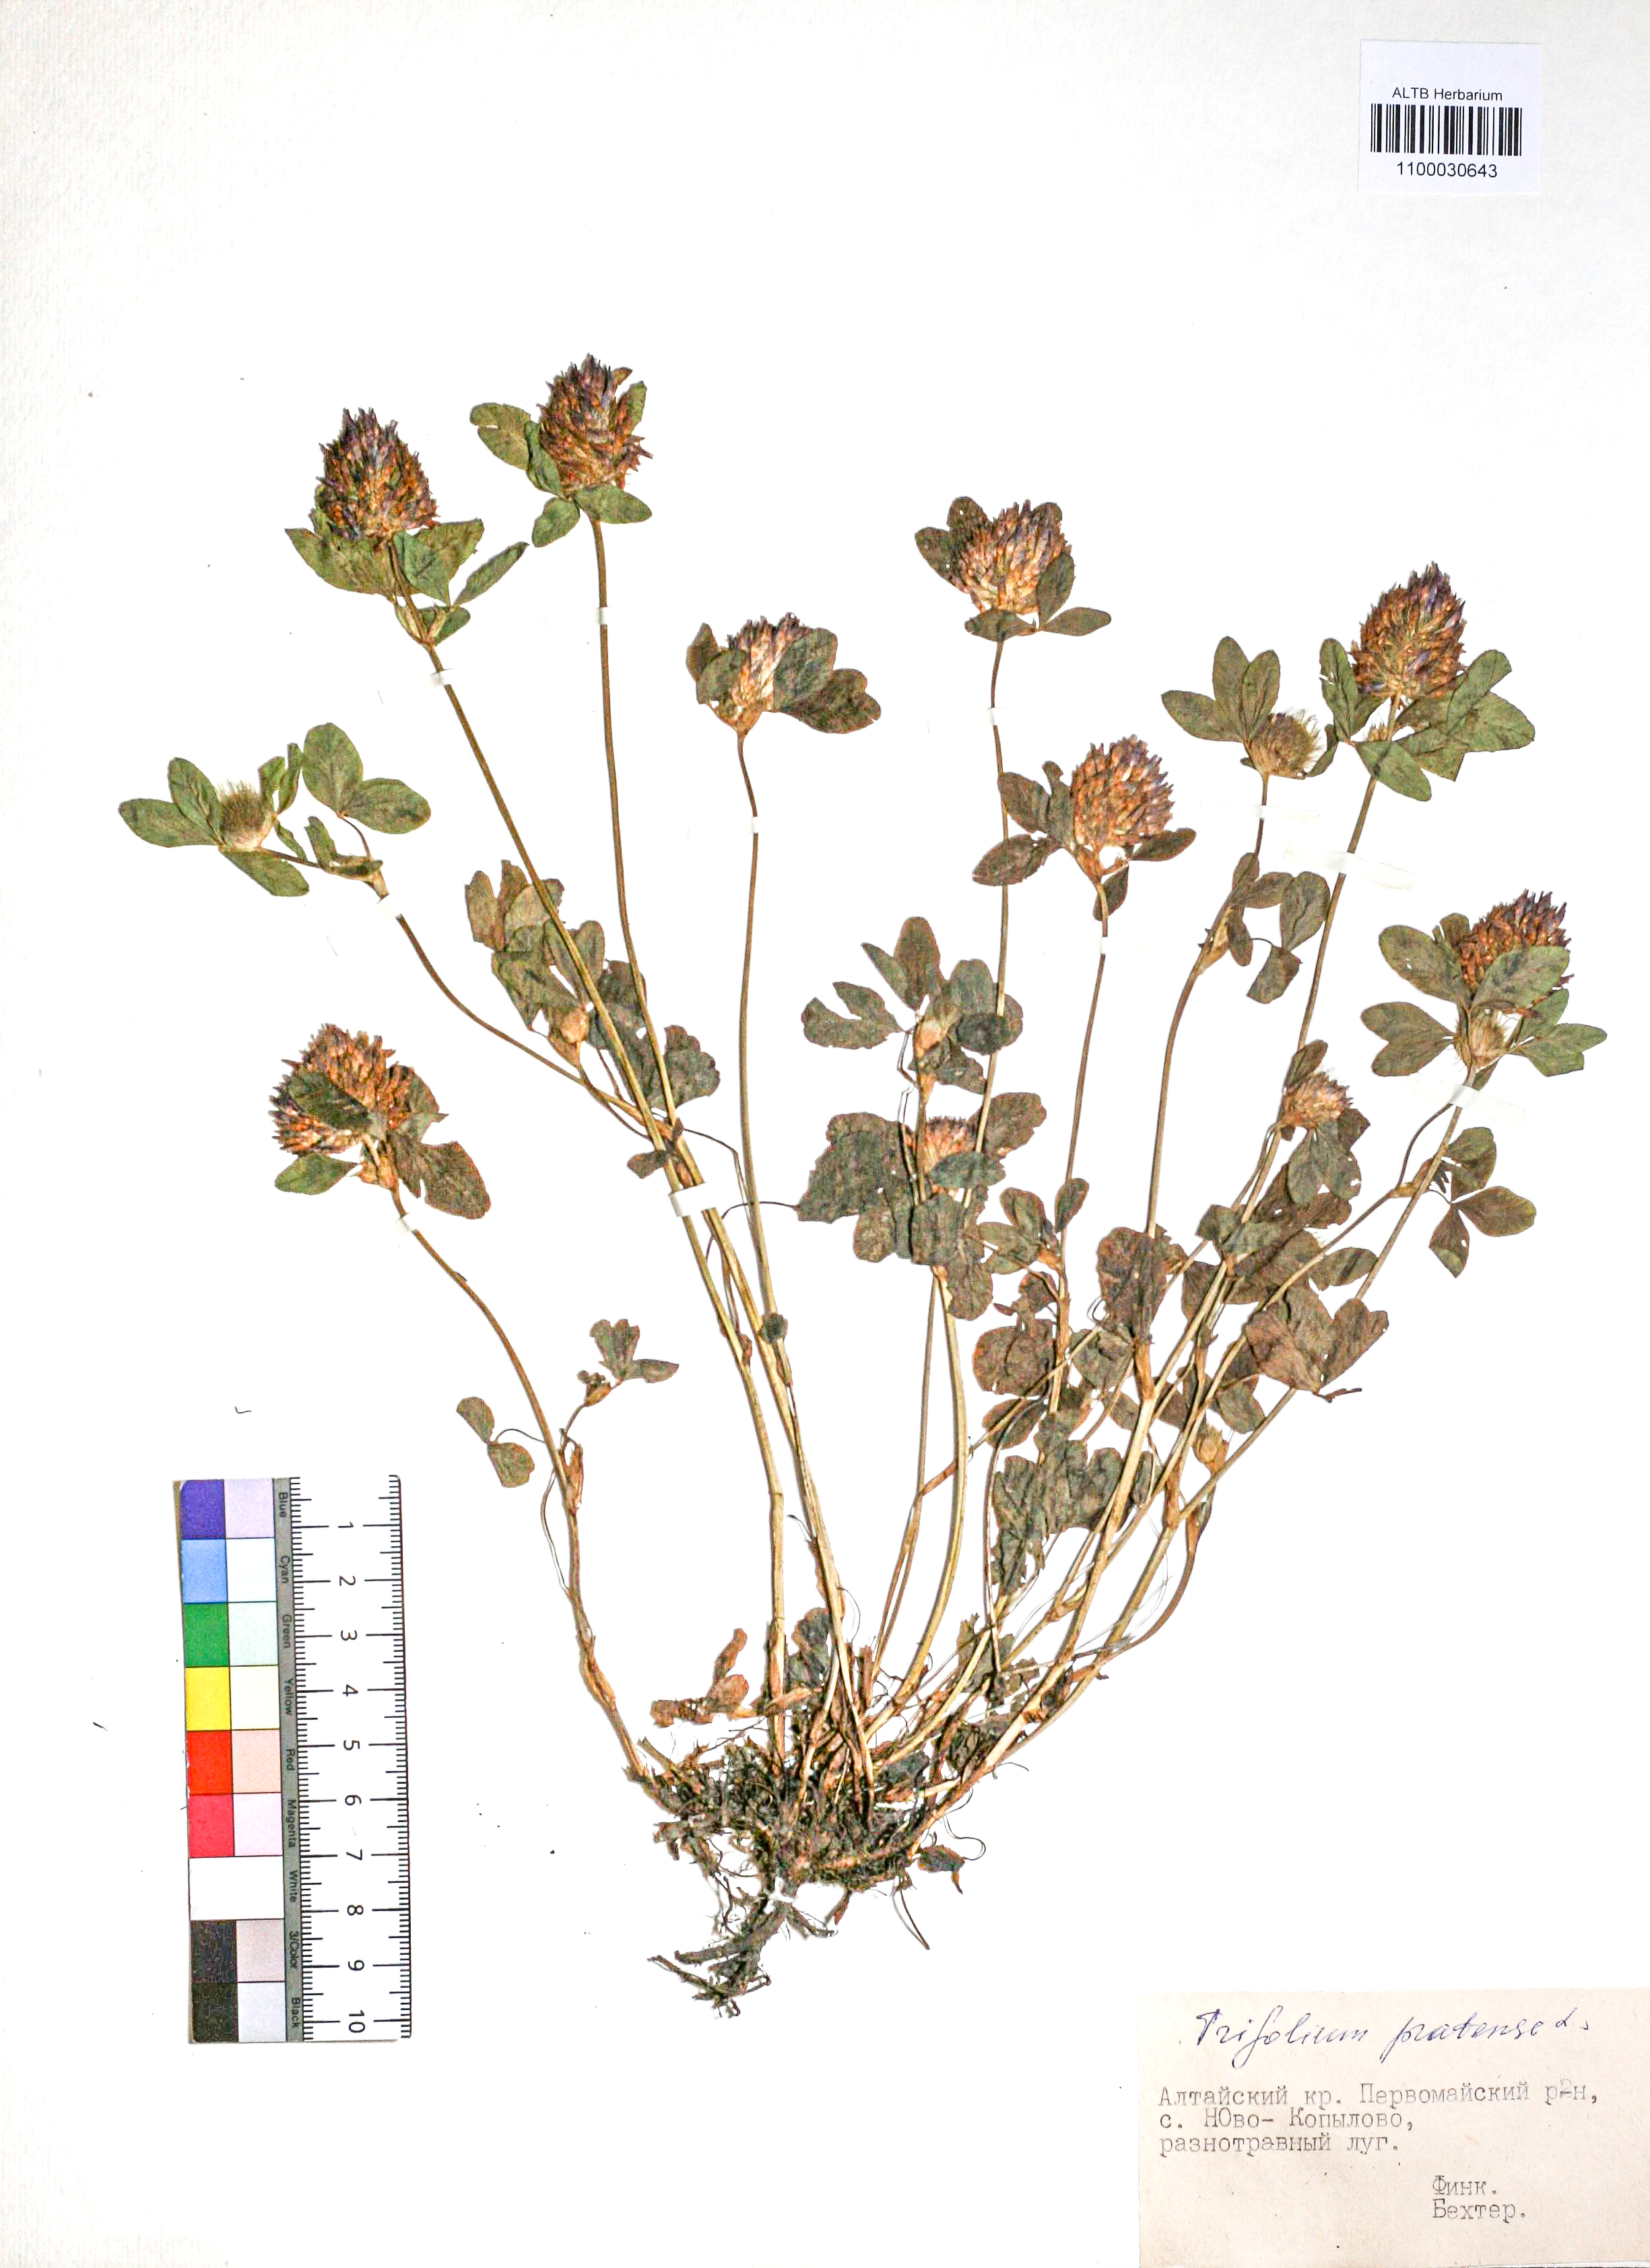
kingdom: Plantae
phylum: Tracheophyta
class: Magnoliopsida
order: Fabales
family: Fabaceae
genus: Trifolium
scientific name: Trifolium pratense
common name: Red clover
